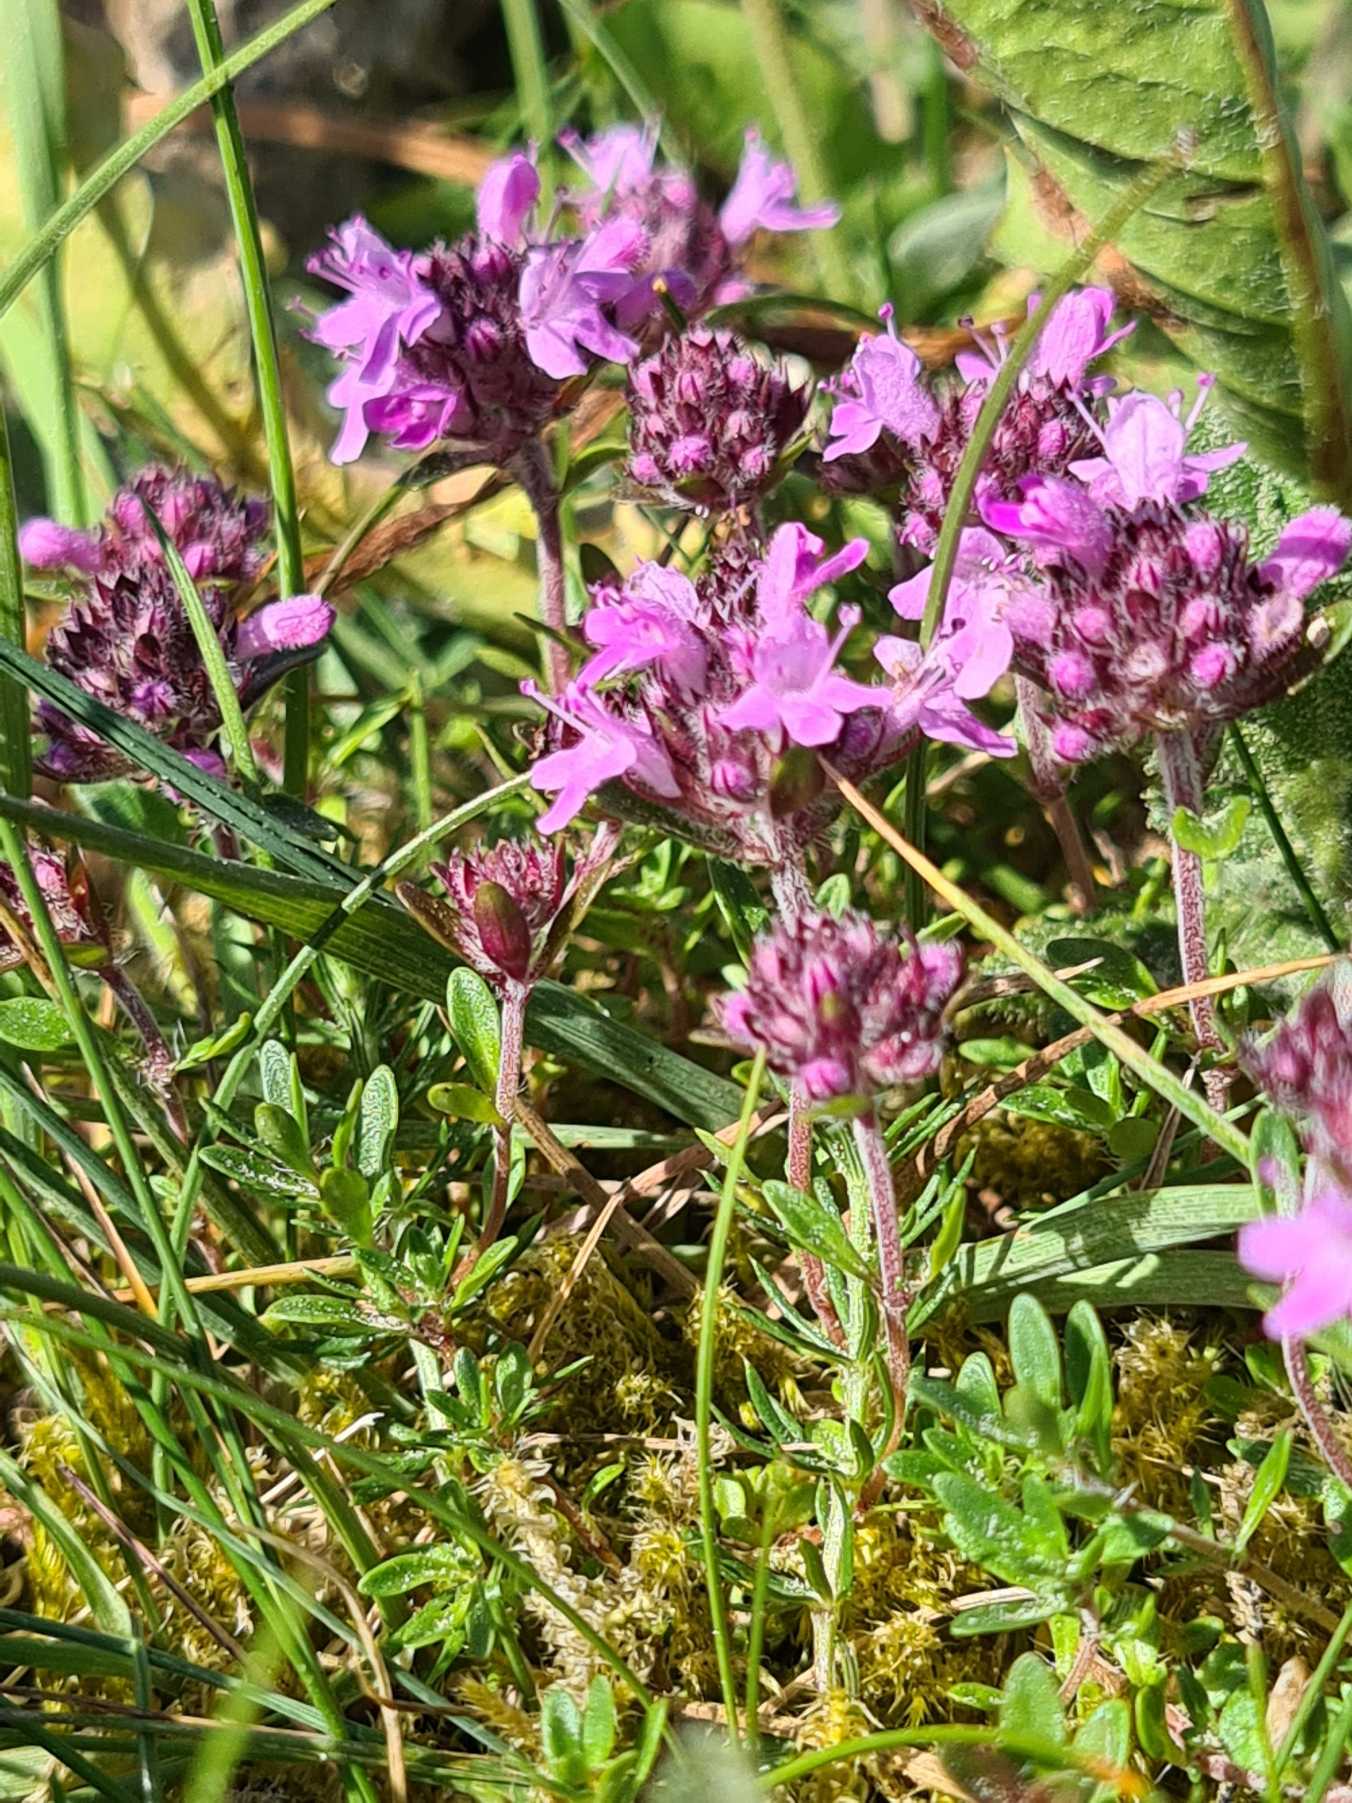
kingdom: Plantae
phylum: Tracheophyta
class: Magnoliopsida
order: Lamiales
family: Lamiaceae
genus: Thymus
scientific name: Thymus serpyllum
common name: Smalbladet timian
